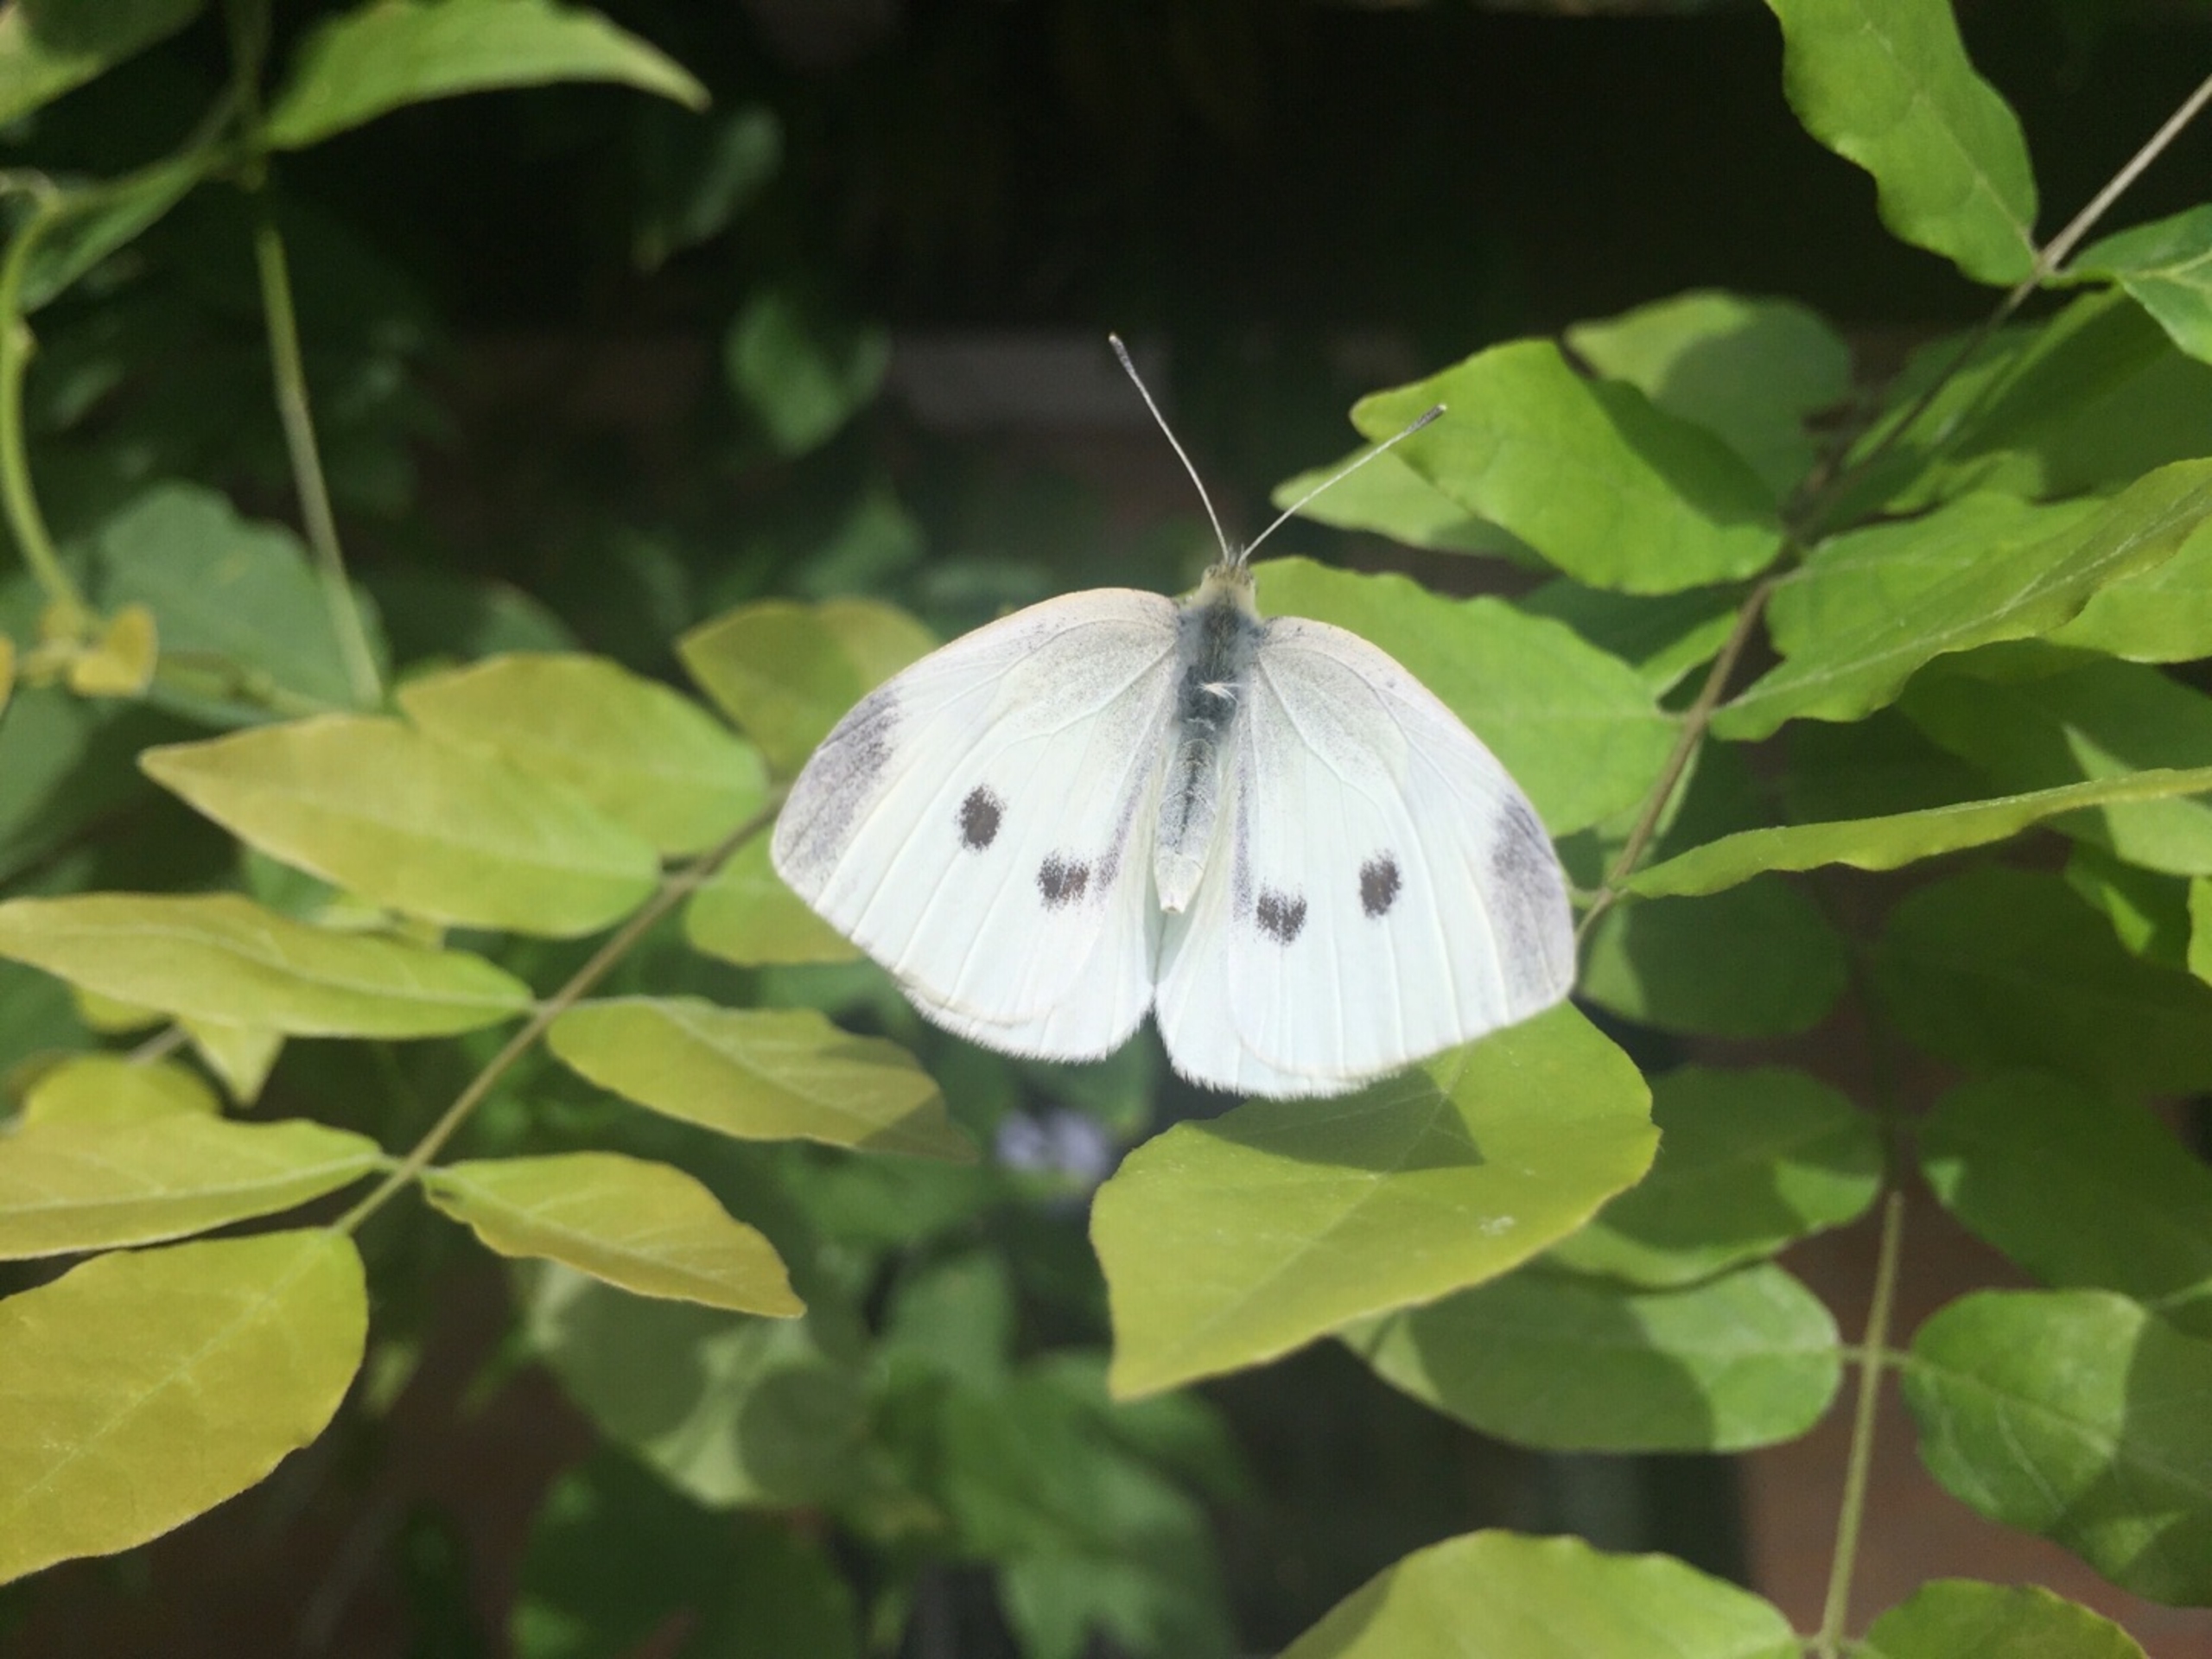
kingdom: Animalia
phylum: Arthropoda
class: Insecta
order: Lepidoptera
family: Pieridae
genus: Pieris
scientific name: Pieris rapae
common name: Lille kålsommerfugl
